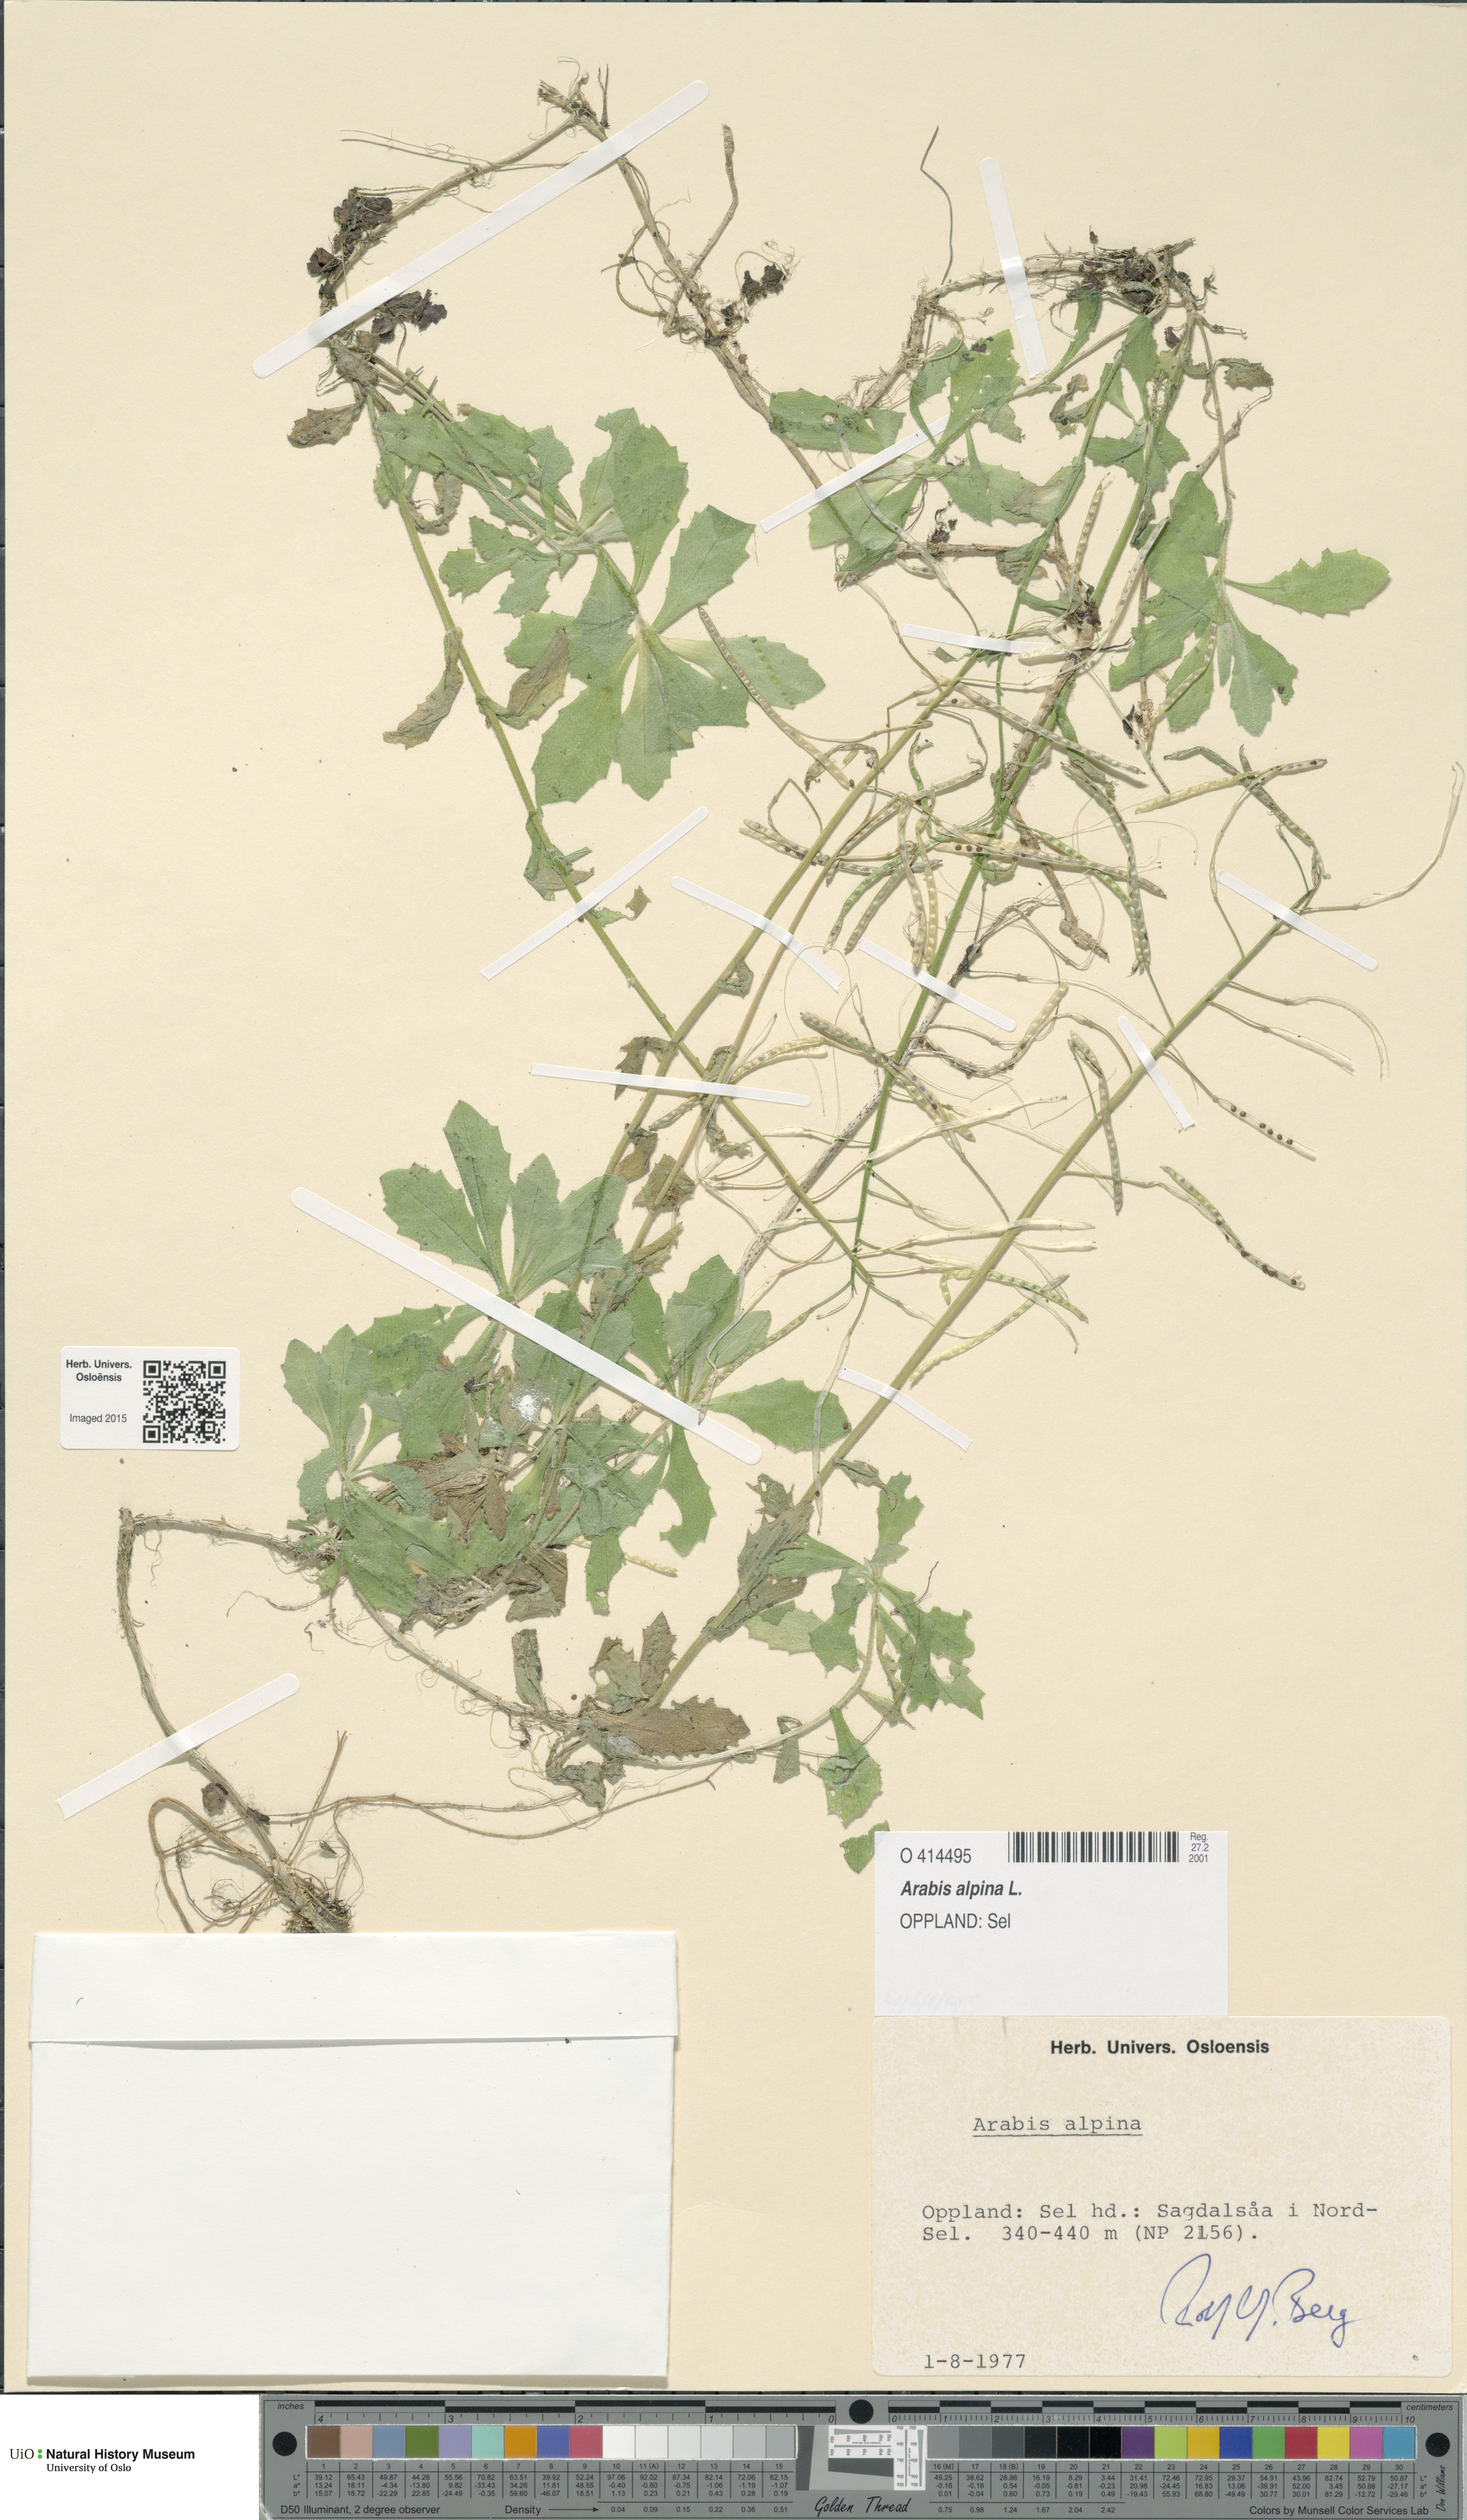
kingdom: Plantae
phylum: Tracheophyta
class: Magnoliopsida
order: Brassicales
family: Brassicaceae
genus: Arabis
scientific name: Arabis alpina
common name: Alpine rock-cress
